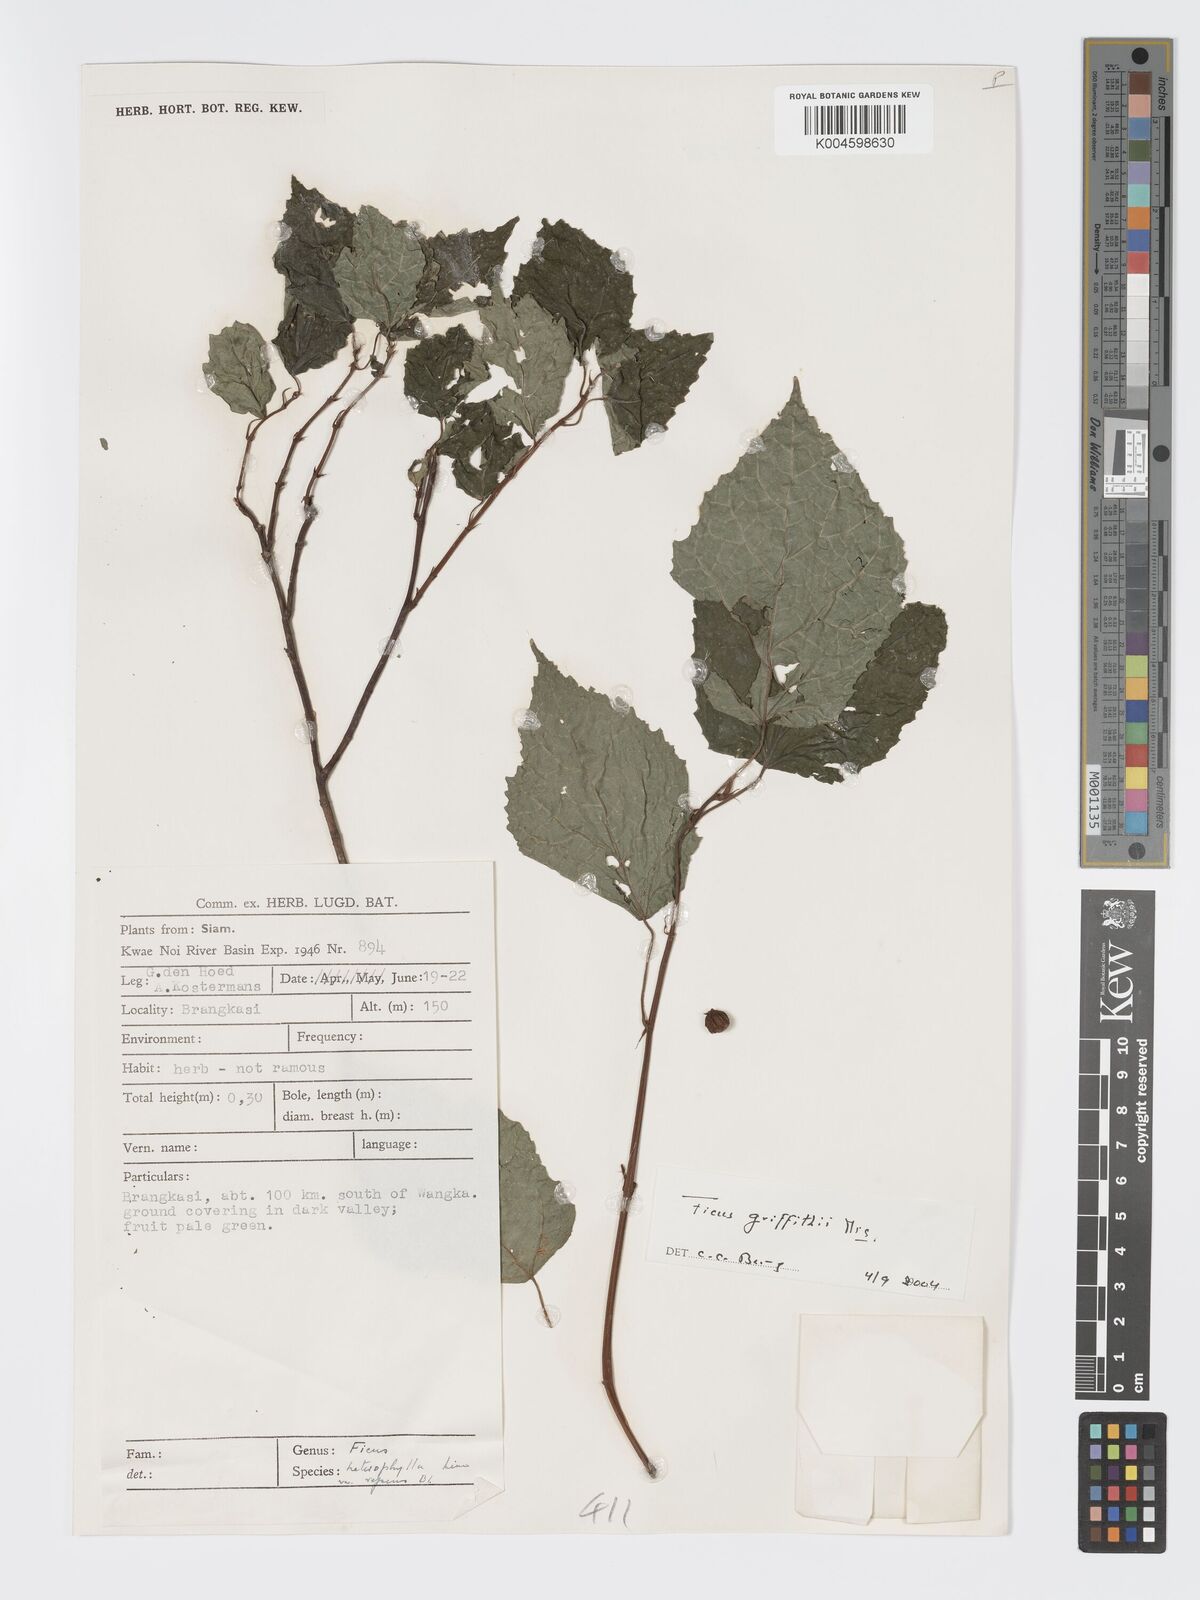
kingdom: Plantae
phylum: Tracheophyta
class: Magnoliopsida
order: Rosales
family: Moraceae
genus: Ficus
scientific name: Ficus griffithii
